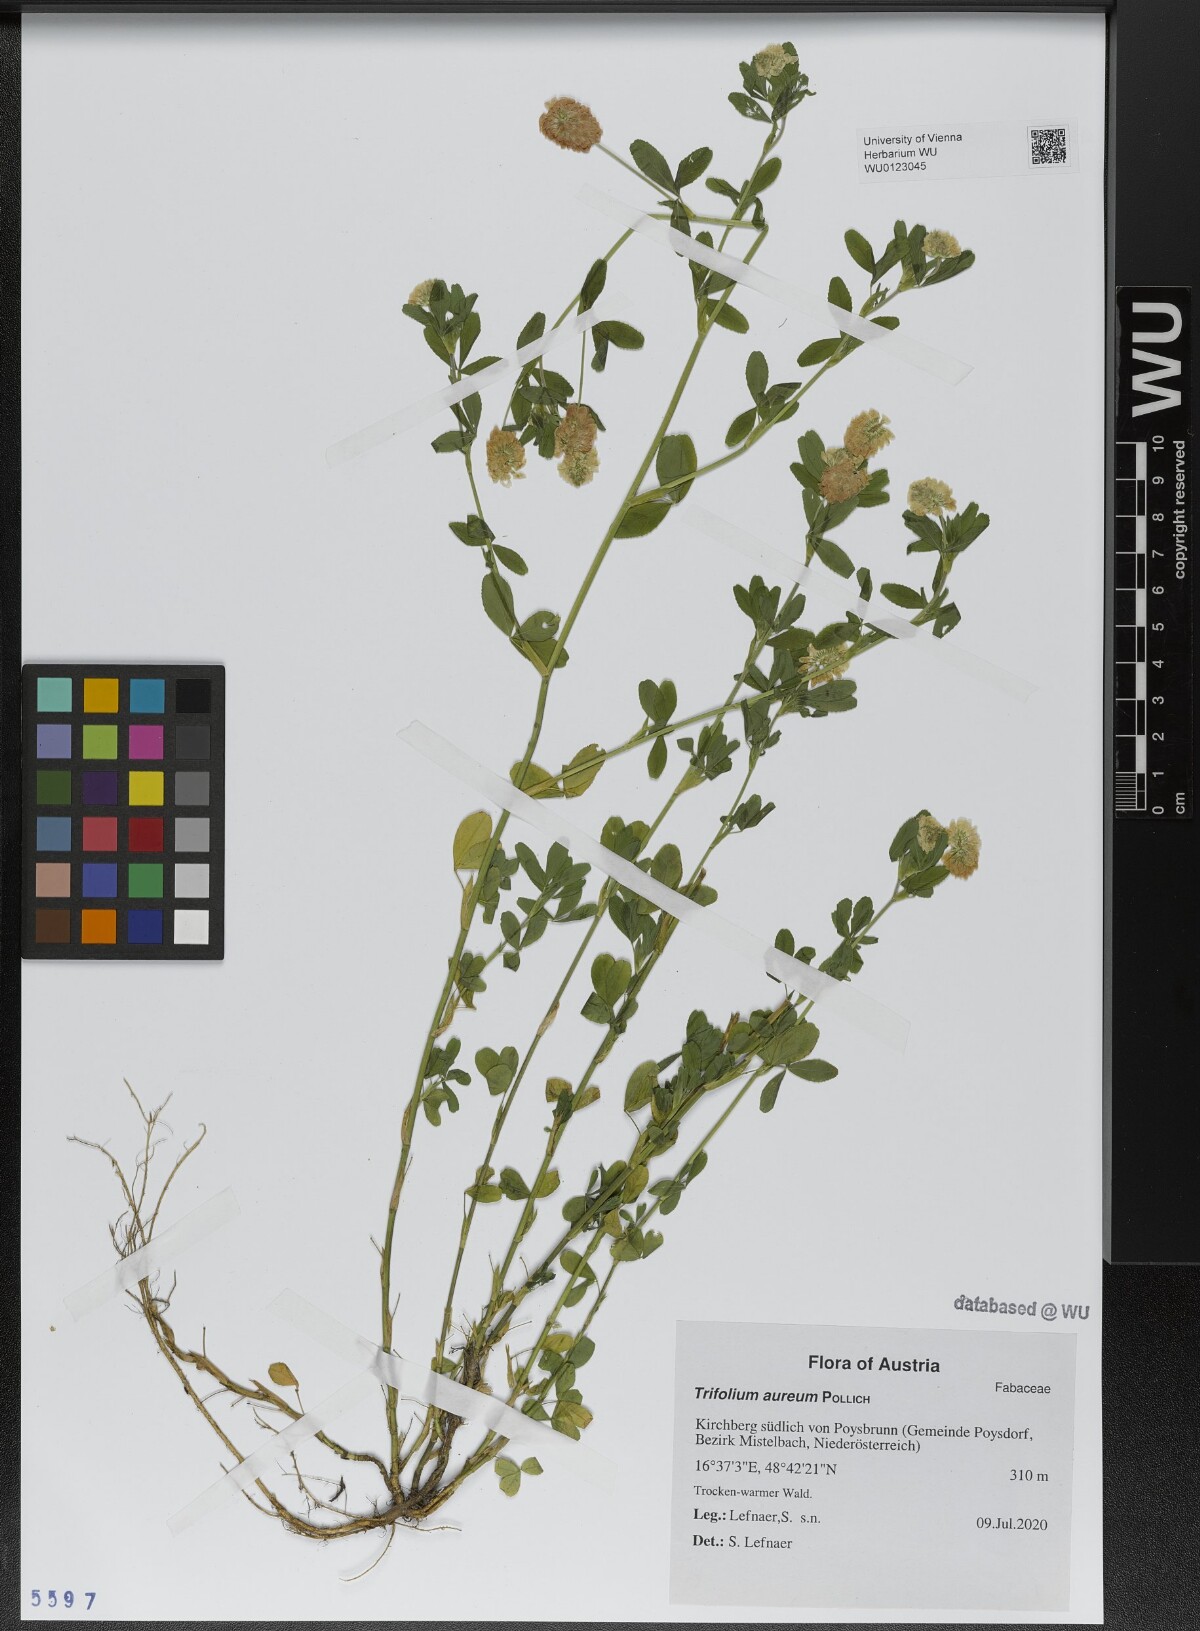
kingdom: Plantae
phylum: Tracheophyta
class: Magnoliopsida
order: Fabales
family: Fabaceae
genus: Trifolium
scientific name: Trifolium aureum
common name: Golden clover
